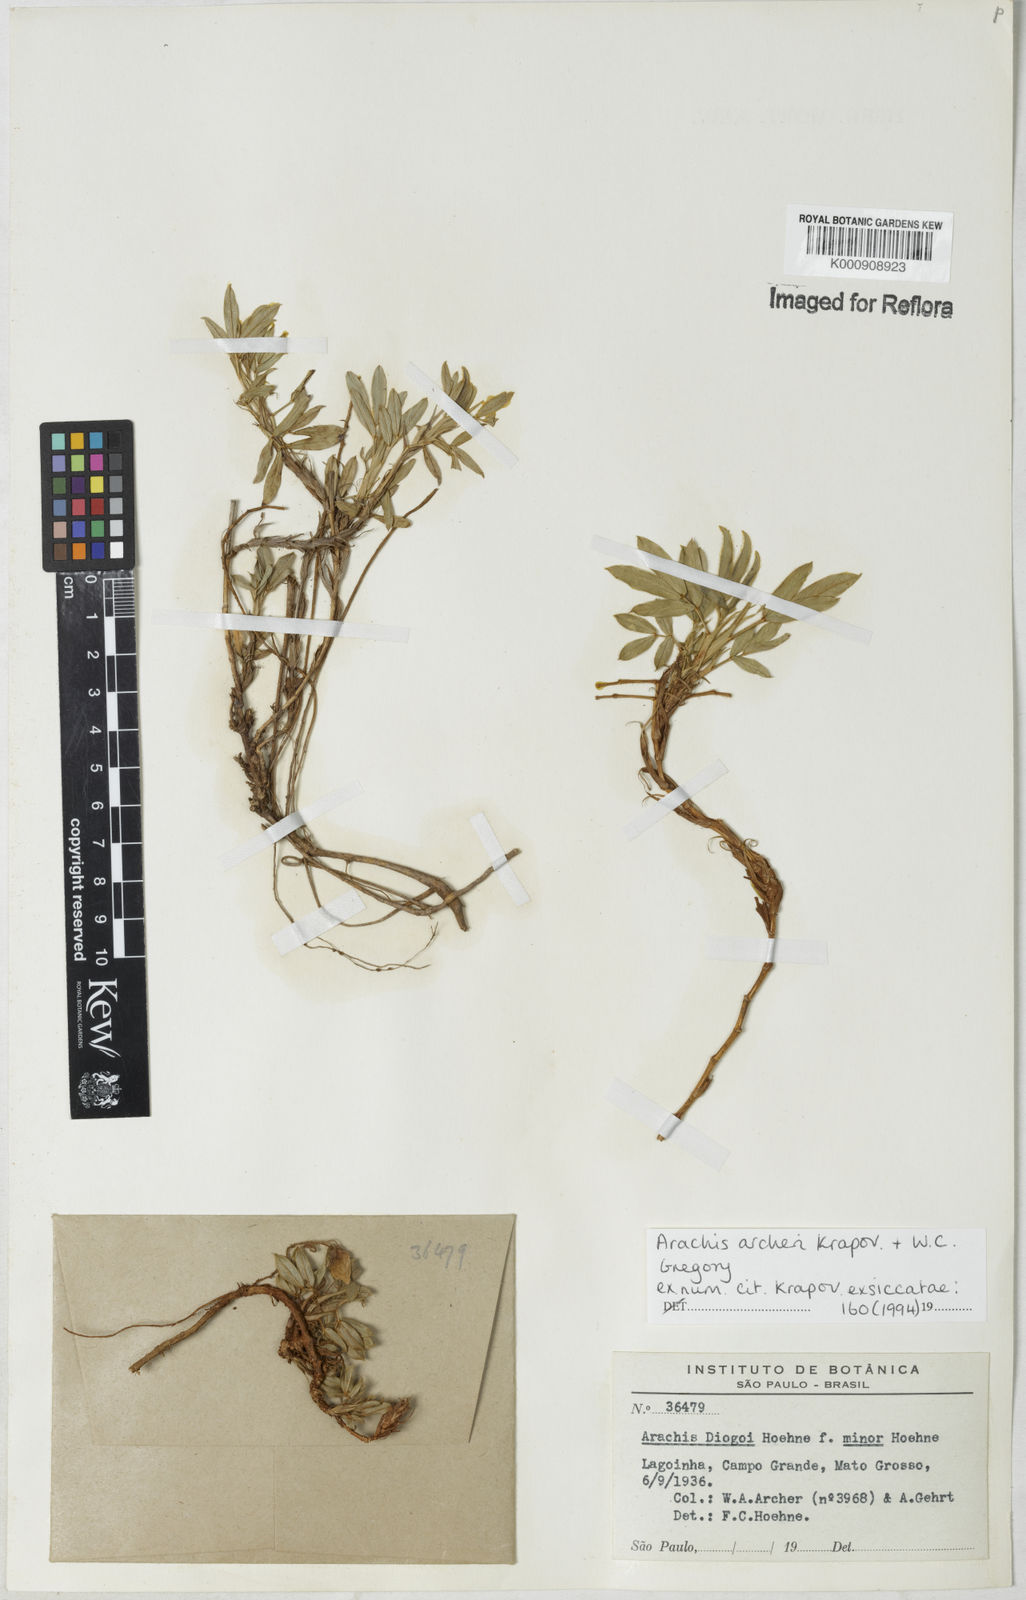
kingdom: Plantae
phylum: Tracheophyta
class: Magnoliopsida
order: Fabales
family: Fabaceae
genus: Arachis
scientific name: Arachis archeri
